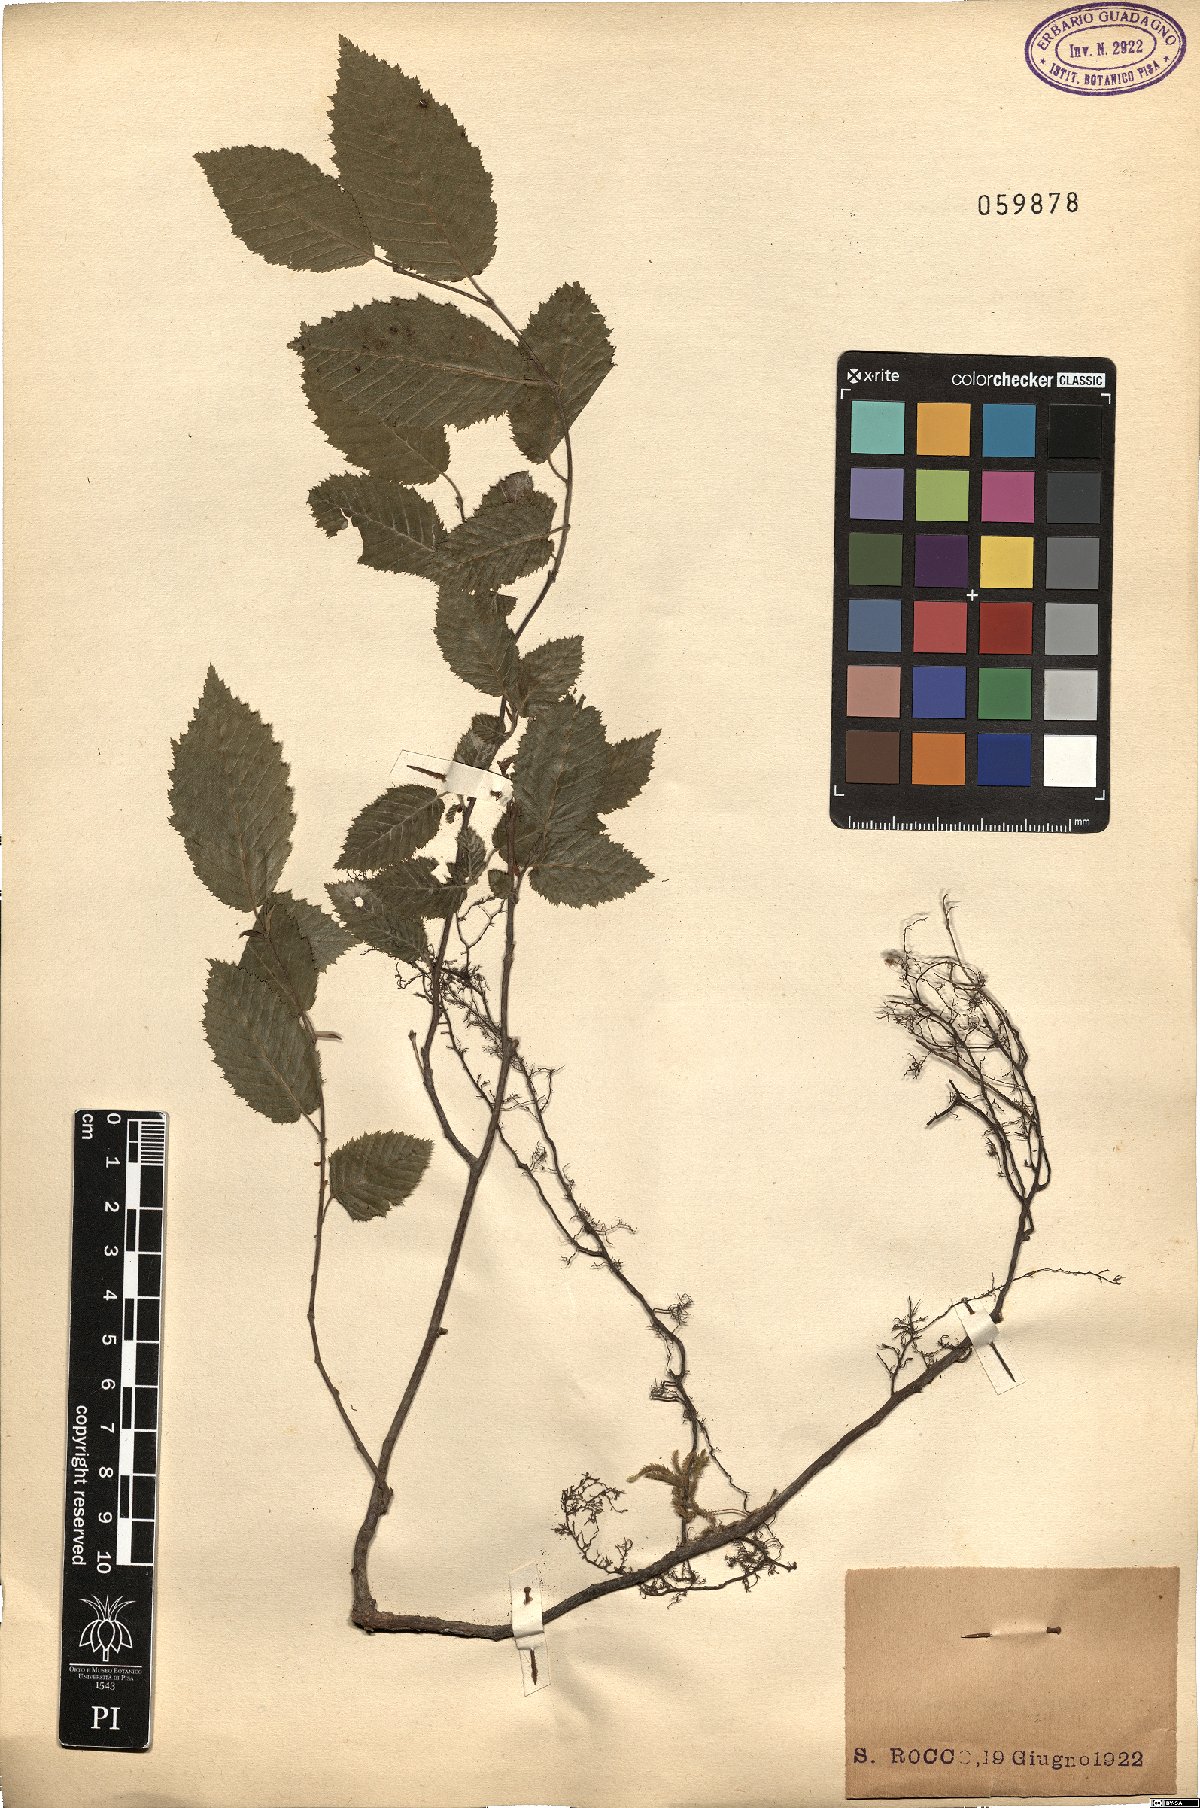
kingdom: Plantae
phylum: Tracheophyta
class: Magnoliopsida
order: Fagales
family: Betulaceae
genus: Carpinus
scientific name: Carpinus betulus
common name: Hornbeam
